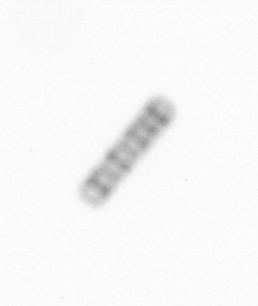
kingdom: Chromista
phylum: Ochrophyta
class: Bacillariophyceae
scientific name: Bacillariophyceae
